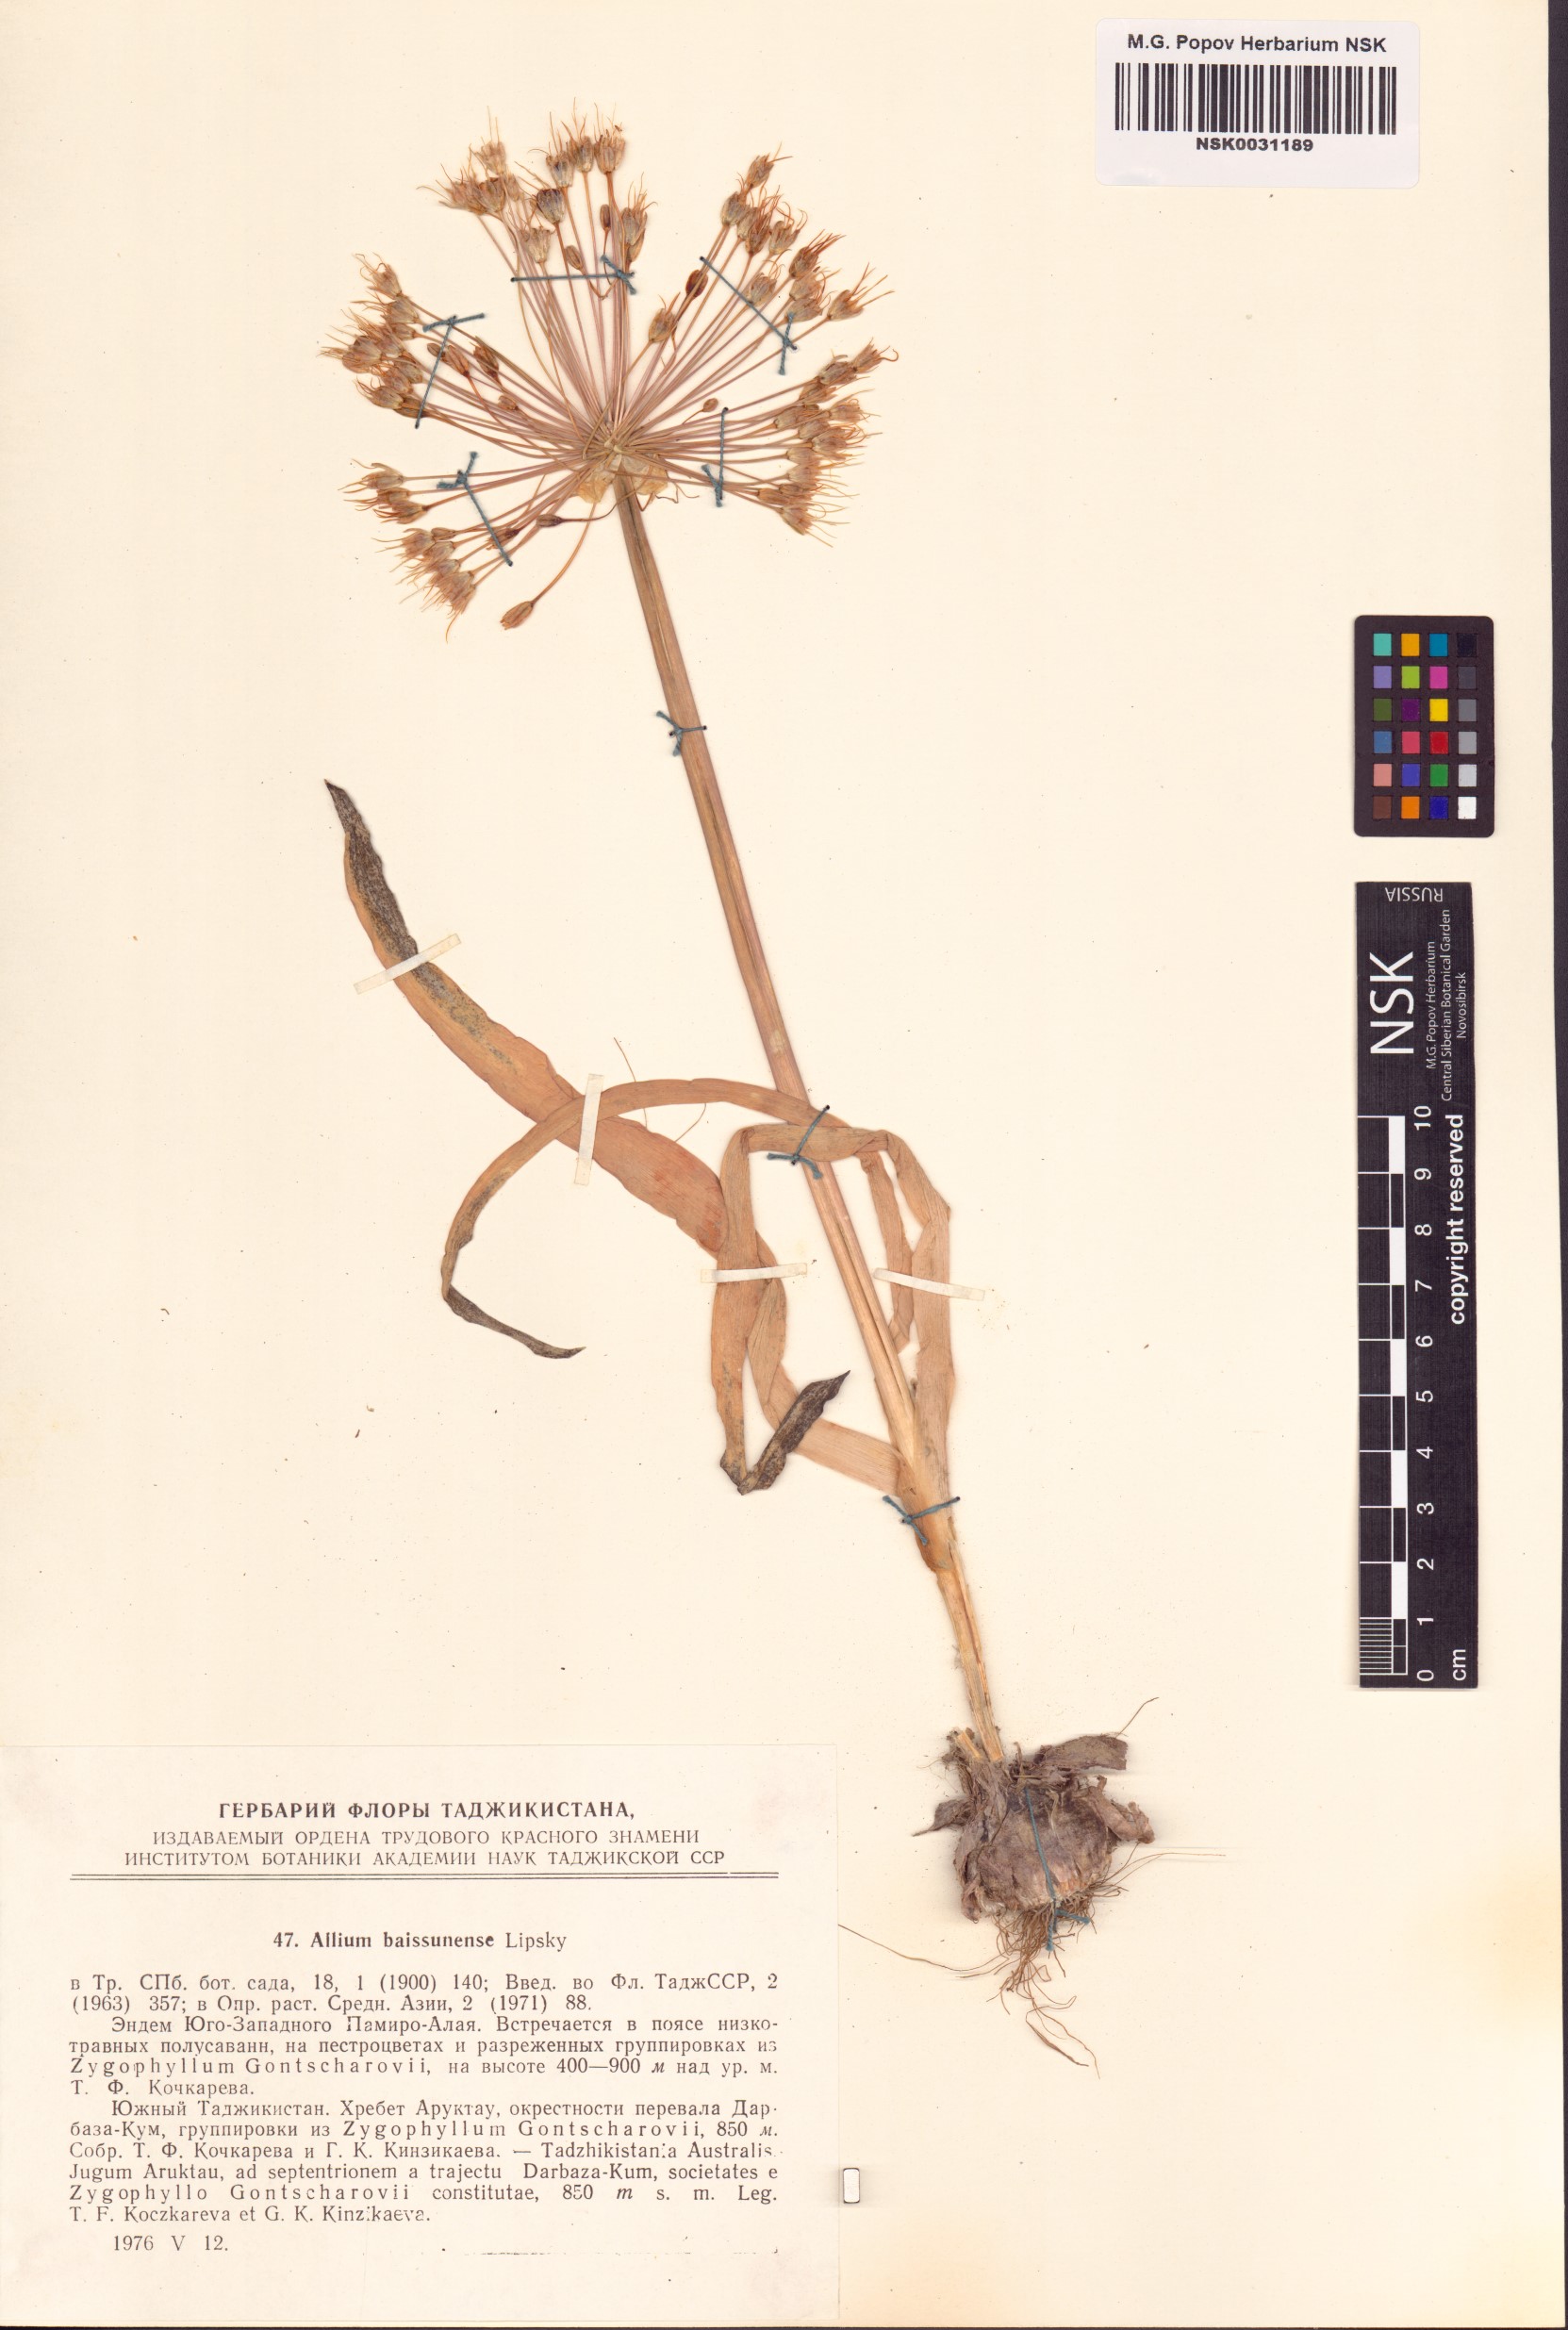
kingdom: Plantae
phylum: Tracheophyta
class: Liliopsida
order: Asparagales
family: Amaryllidaceae
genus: Allium
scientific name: Allium caspium
